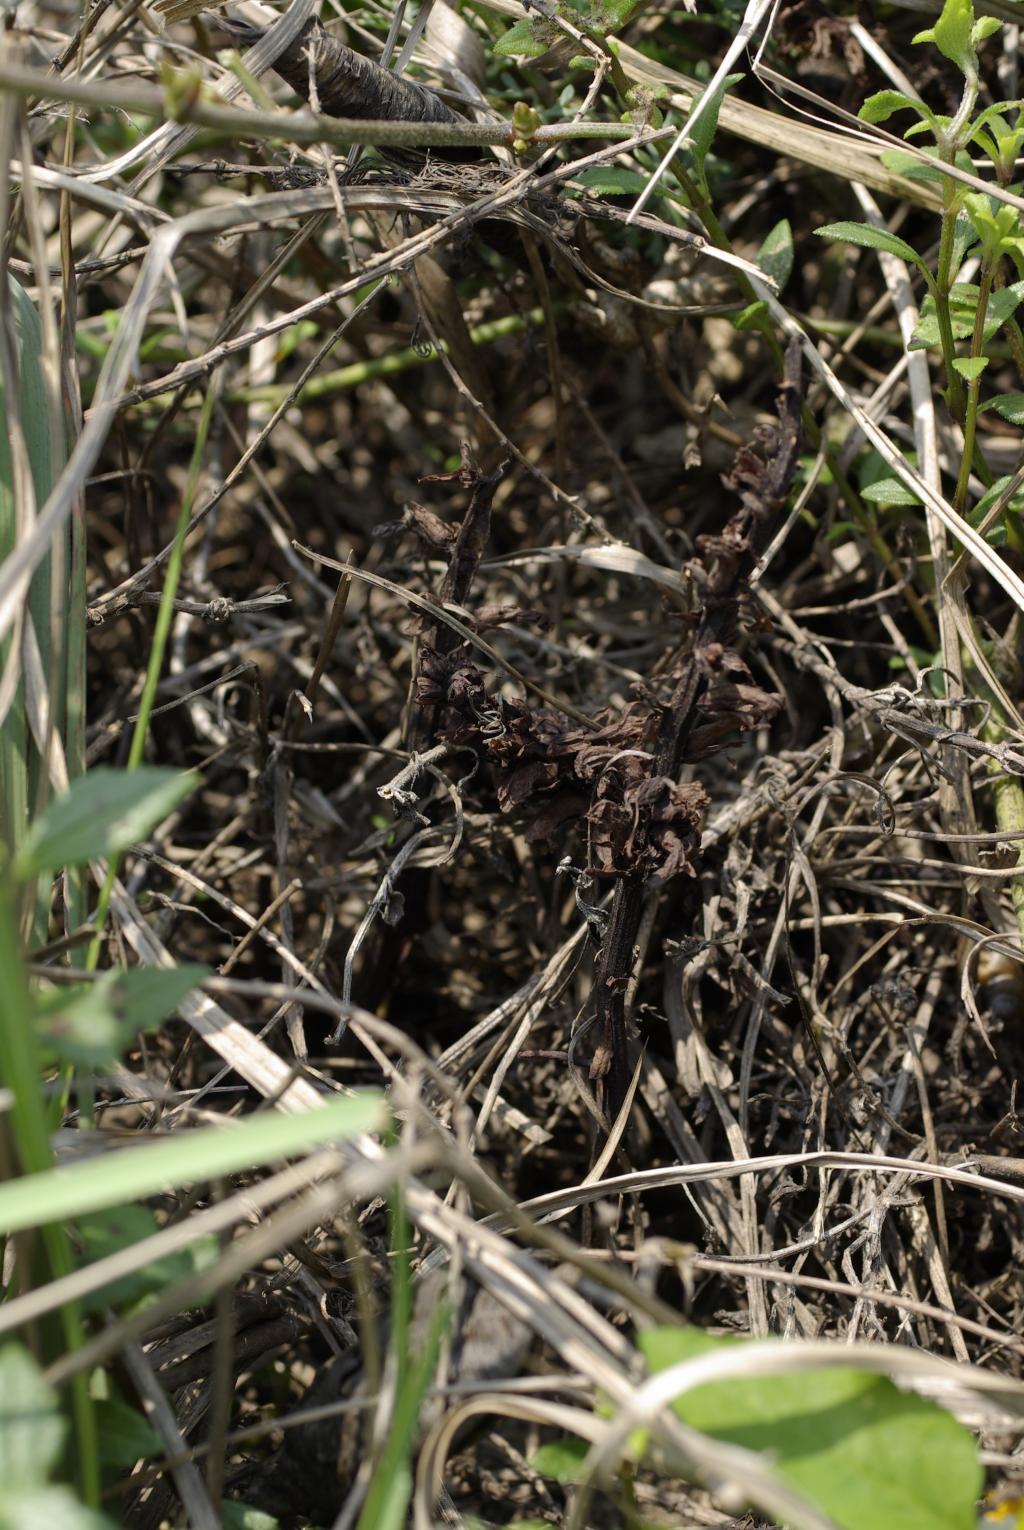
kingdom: Plantae
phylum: Tracheophyta
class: Magnoliopsida
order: Lamiales
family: Orobanchaceae
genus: Orobanche
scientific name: Orobanche coerulescens
